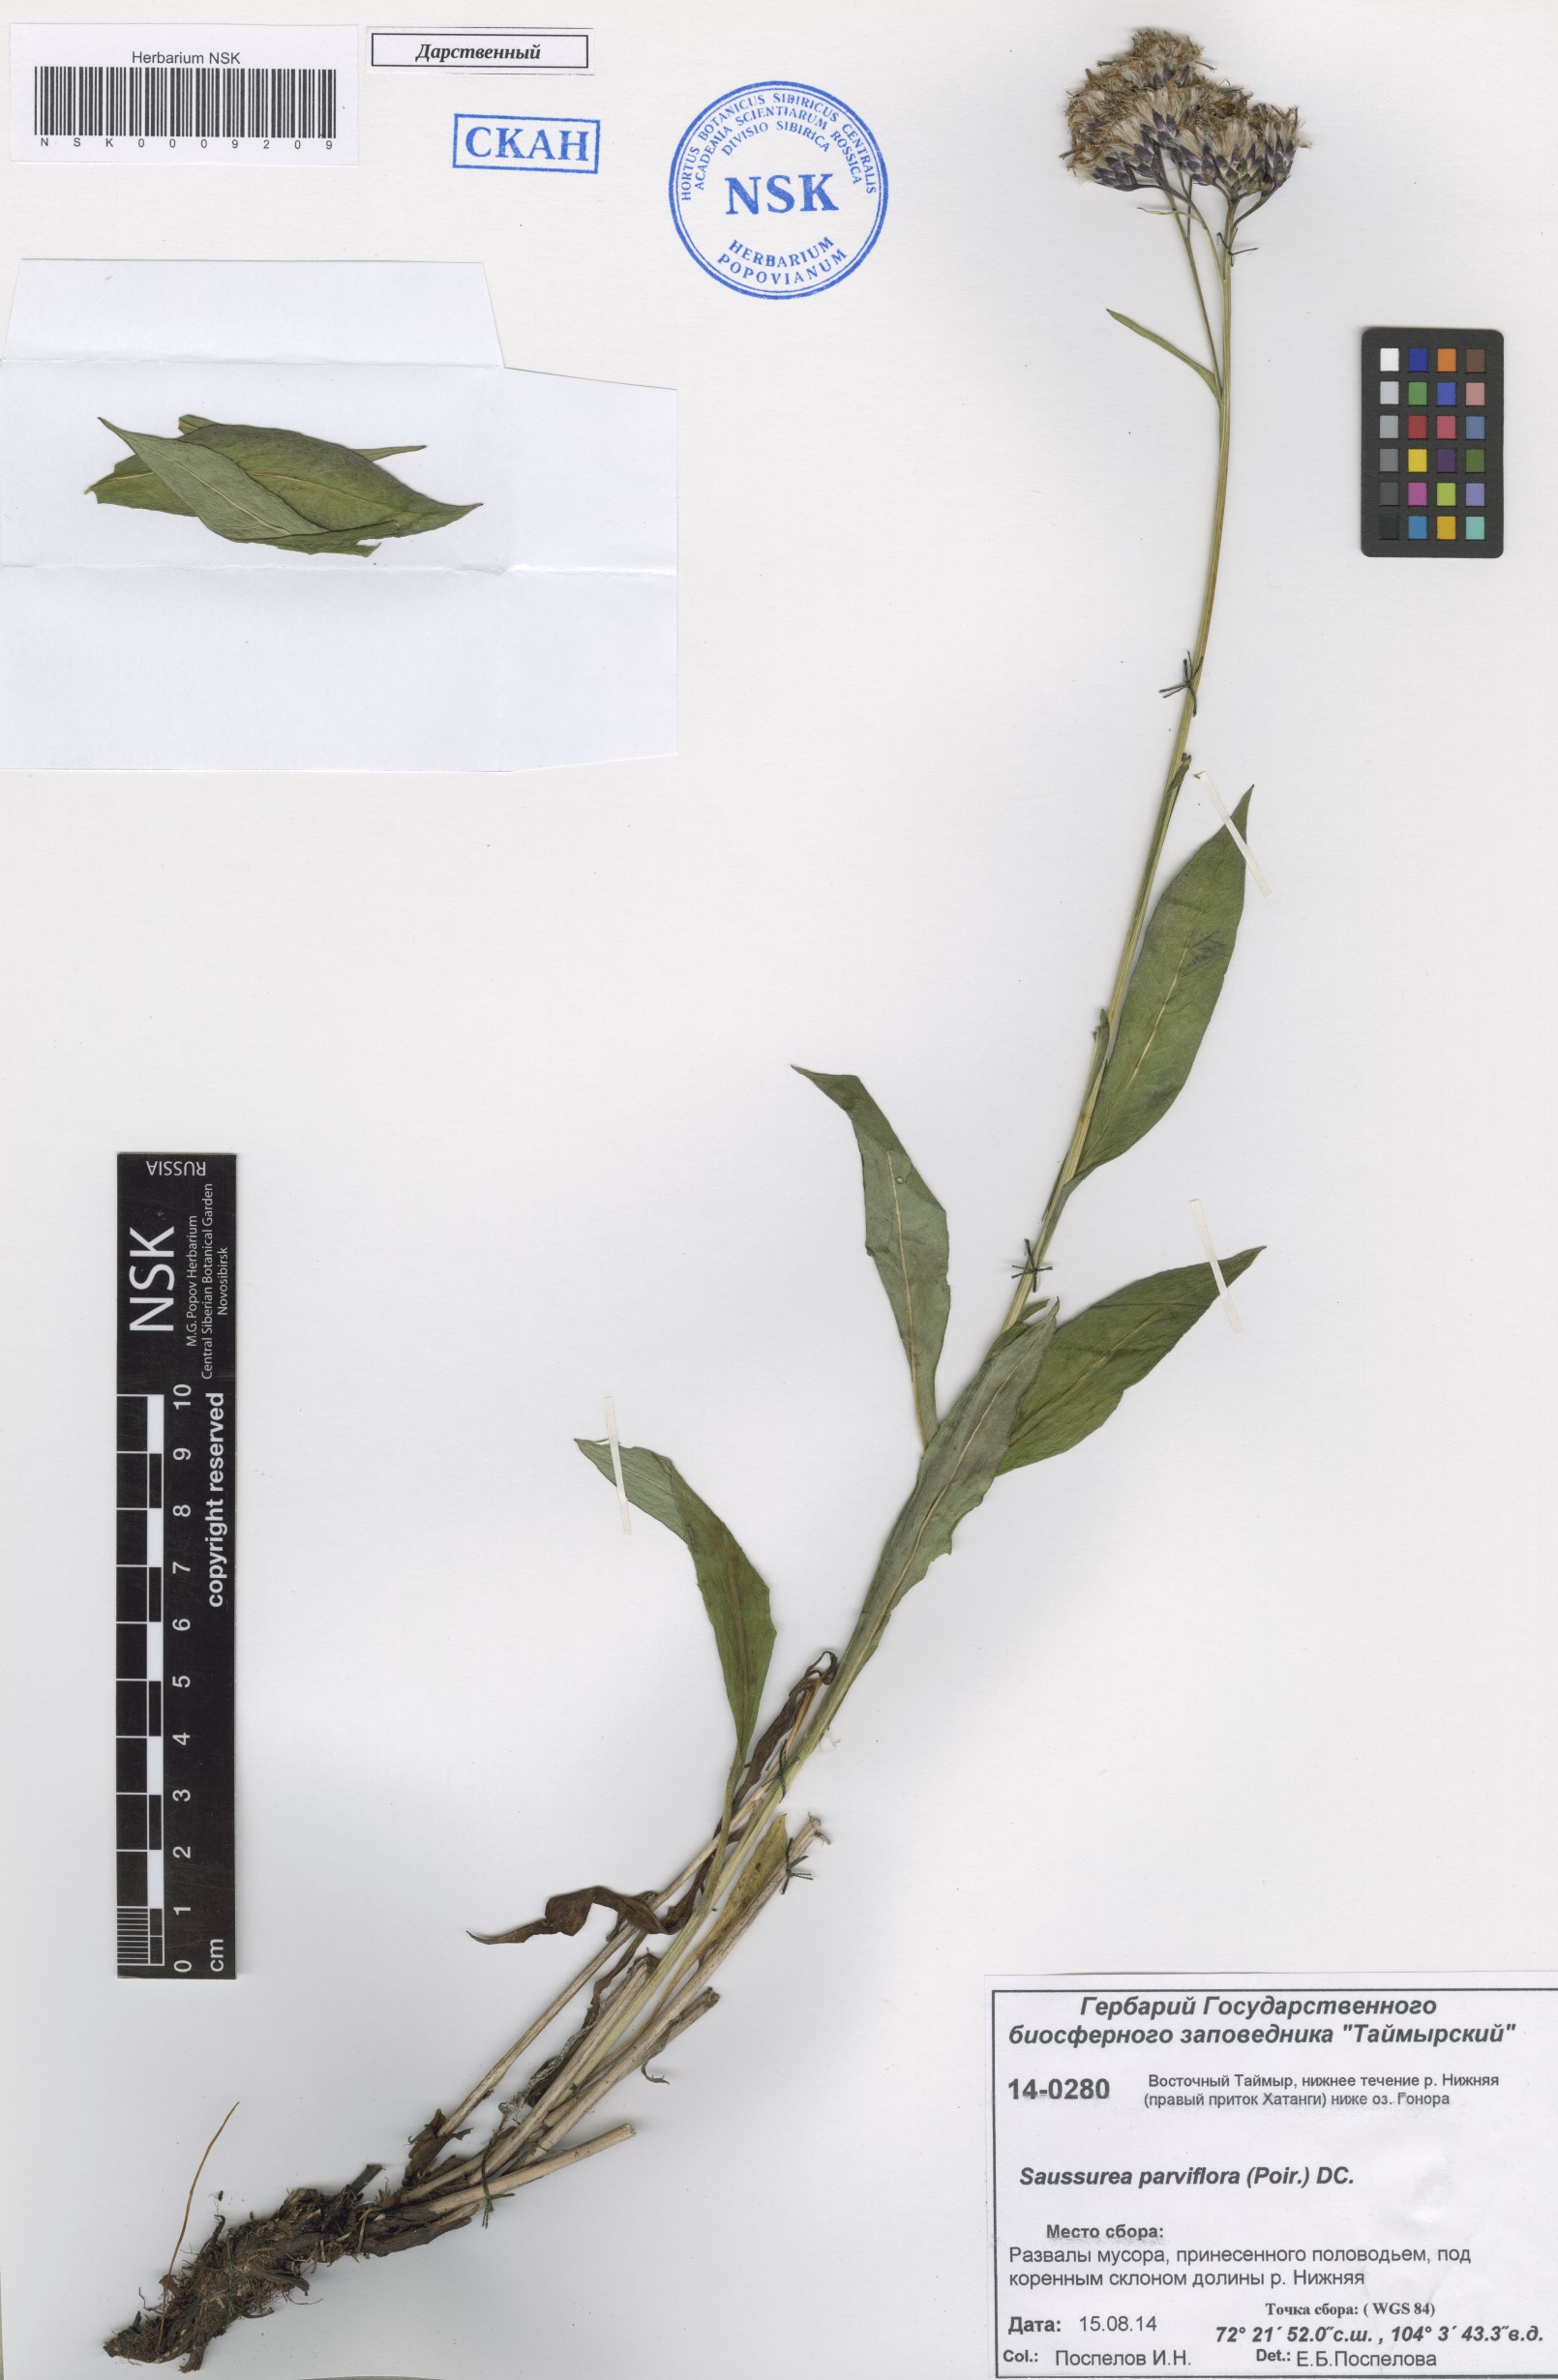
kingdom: Plantae
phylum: Tracheophyta
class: Magnoliopsida
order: Asterales
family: Asteraceae
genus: Saussurea
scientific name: Saussurea parviflora
